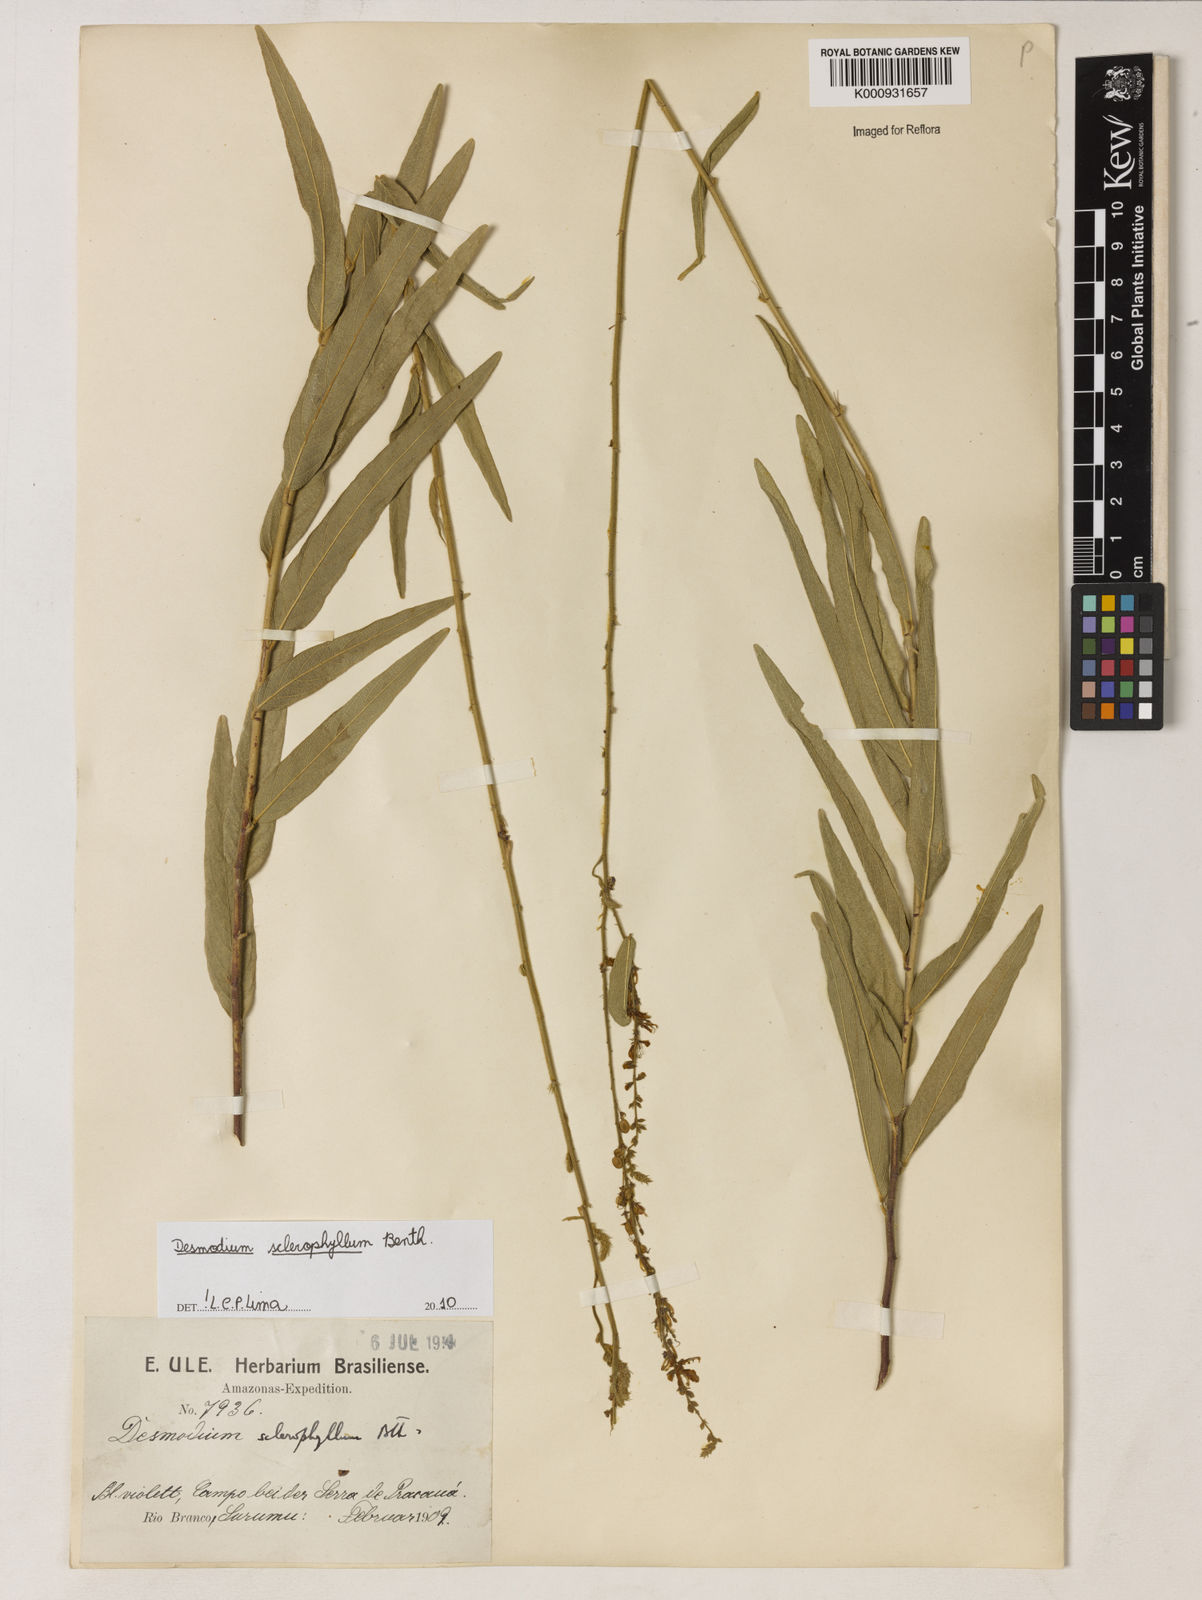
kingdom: Plantae
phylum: Tracheophyta
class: Magnoliopsida
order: Fabales
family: Fabaceae
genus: Desmodium
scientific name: Desmodium sclerophyllum
